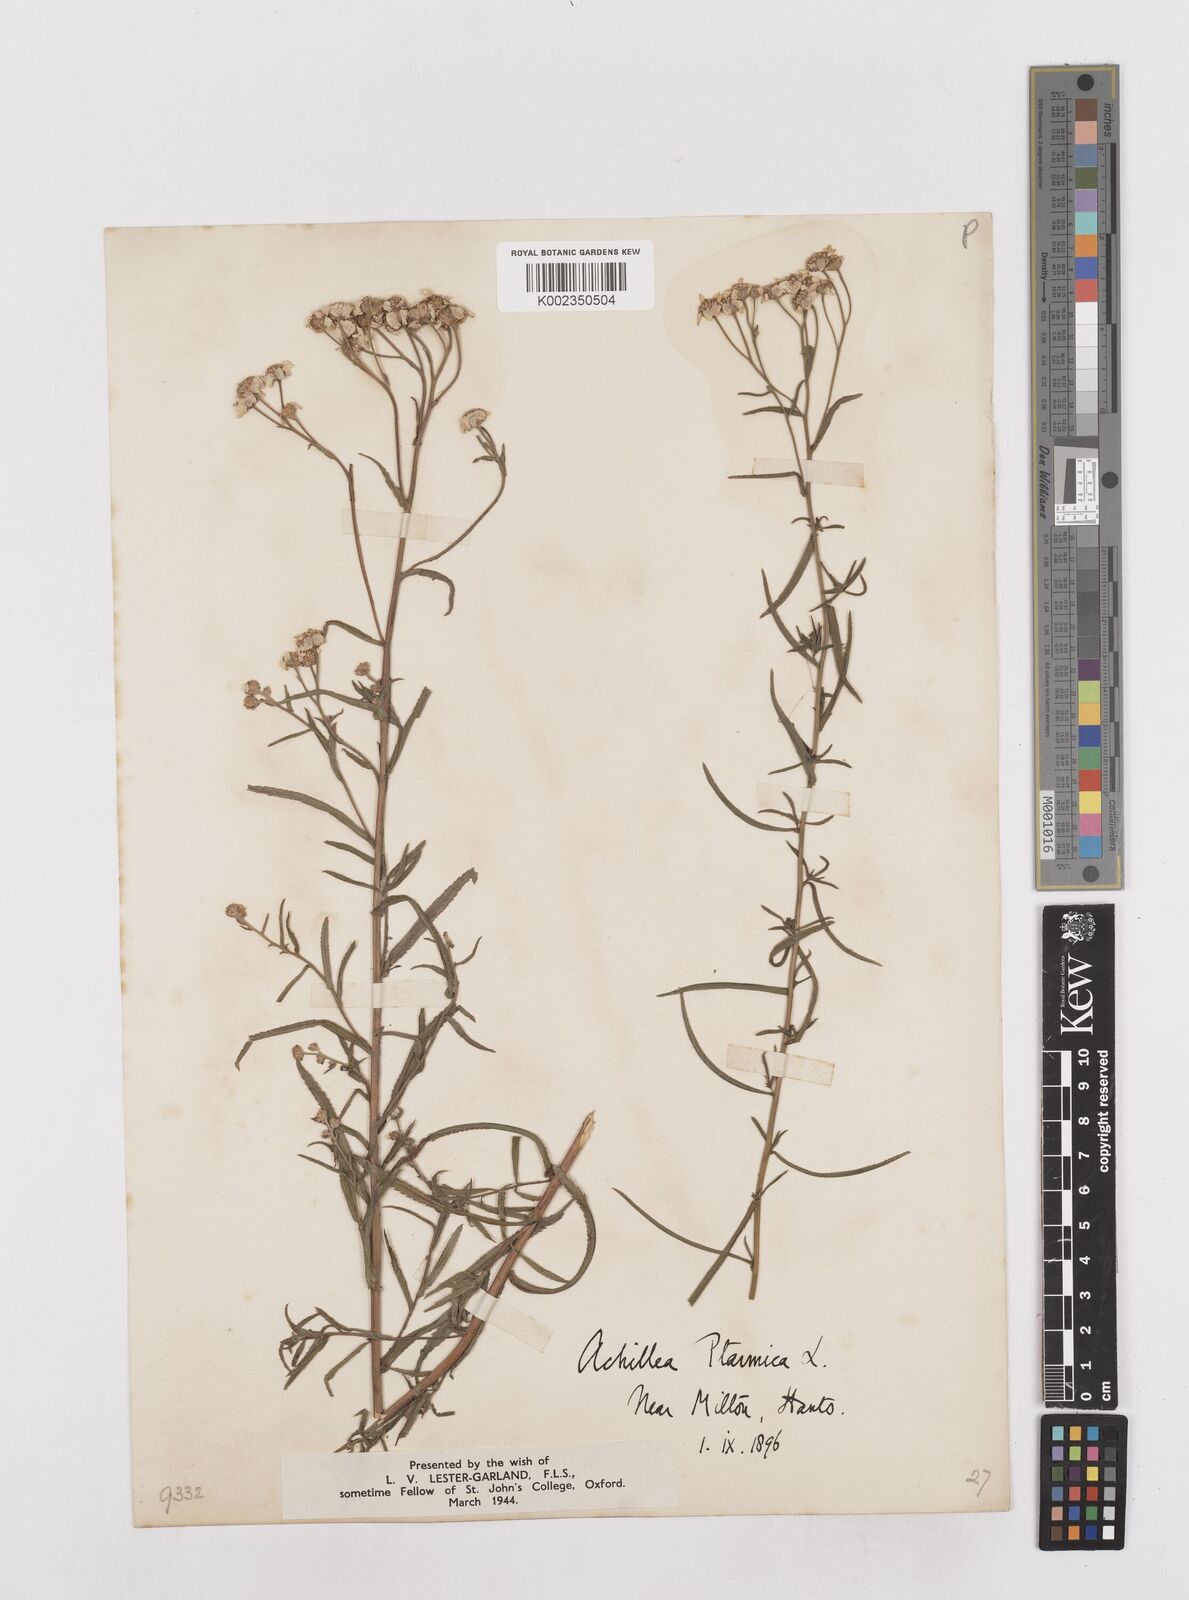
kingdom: Plantae
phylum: Tracheophyta
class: Magnoliopsida
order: Asterales
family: Asteraceae
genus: Achillea
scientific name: Achillea ptarmica
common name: Sneezeweed
